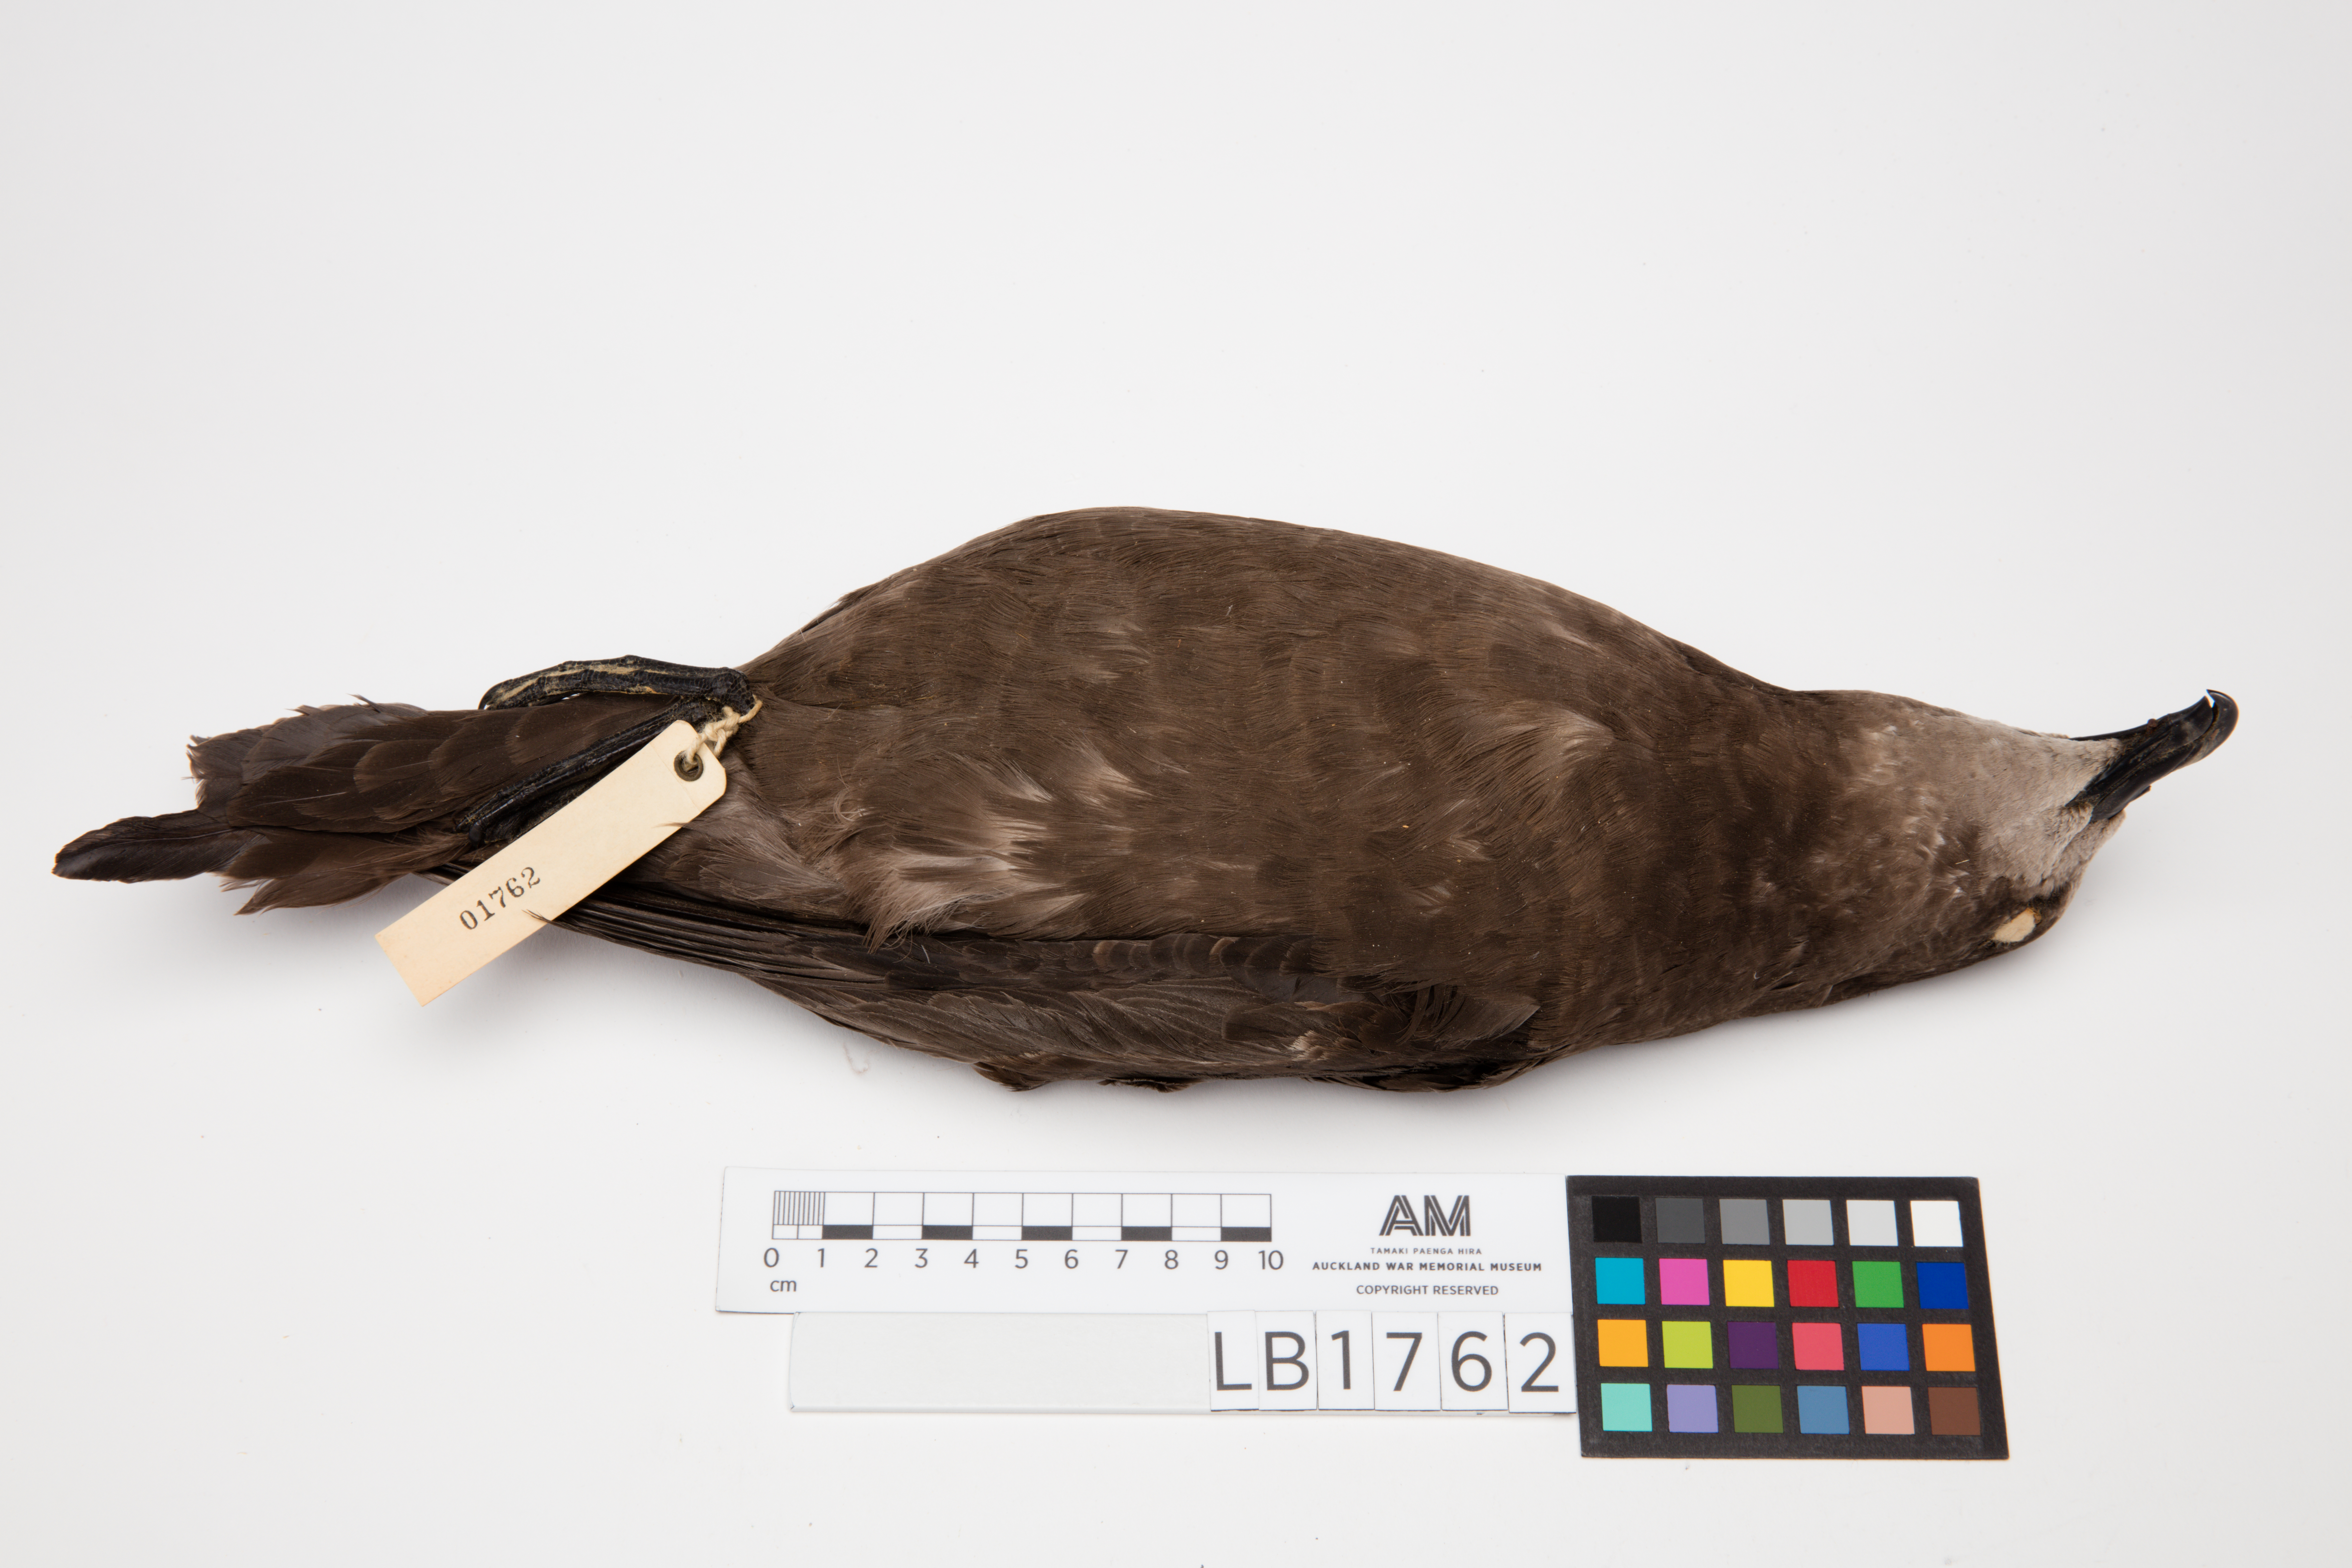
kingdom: Animalia
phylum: Chordata
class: Aves
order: Procellariiformes
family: Procellariidae
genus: Pterodroma
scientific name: Pterodroma macroptera
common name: Great-winged petrel
